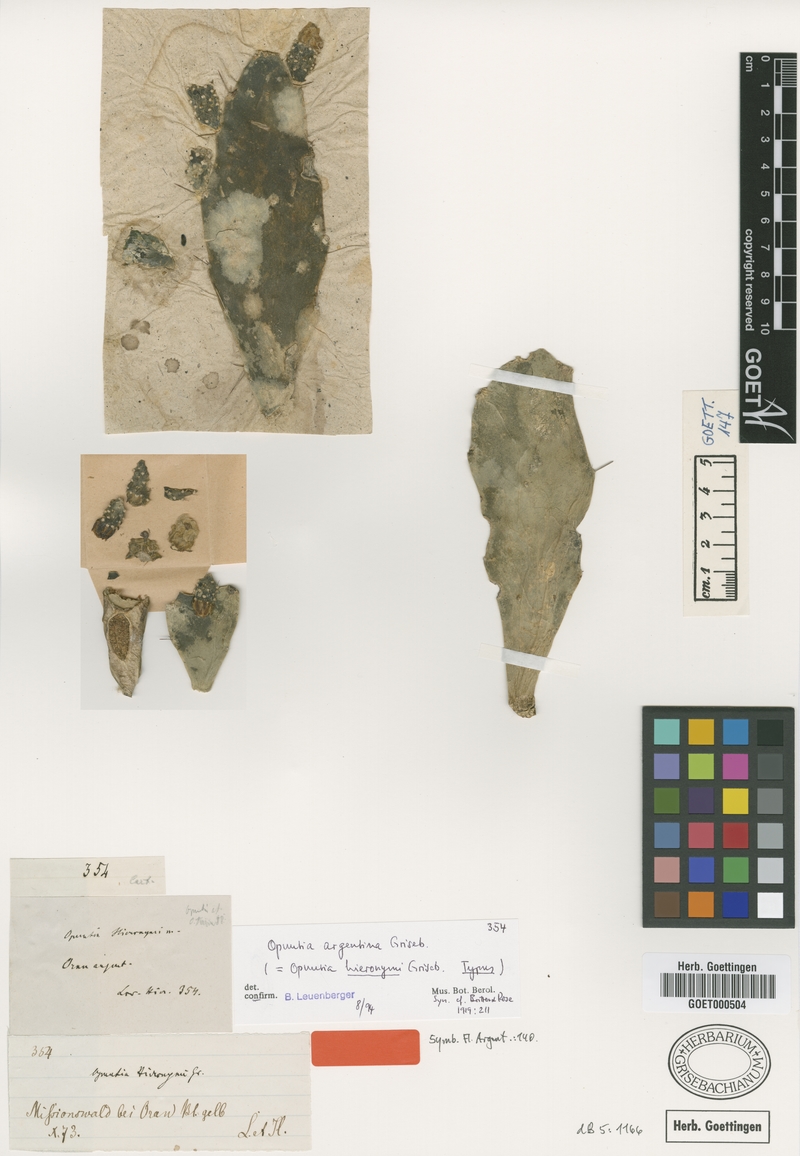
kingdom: Plantae
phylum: Tracheophyta
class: Magnoliopsida
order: Caryophyllales
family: Cactaceae
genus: Brasiliopuntia
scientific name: Brasiliopuntia brasiliensis
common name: Brazilian pricklypear
